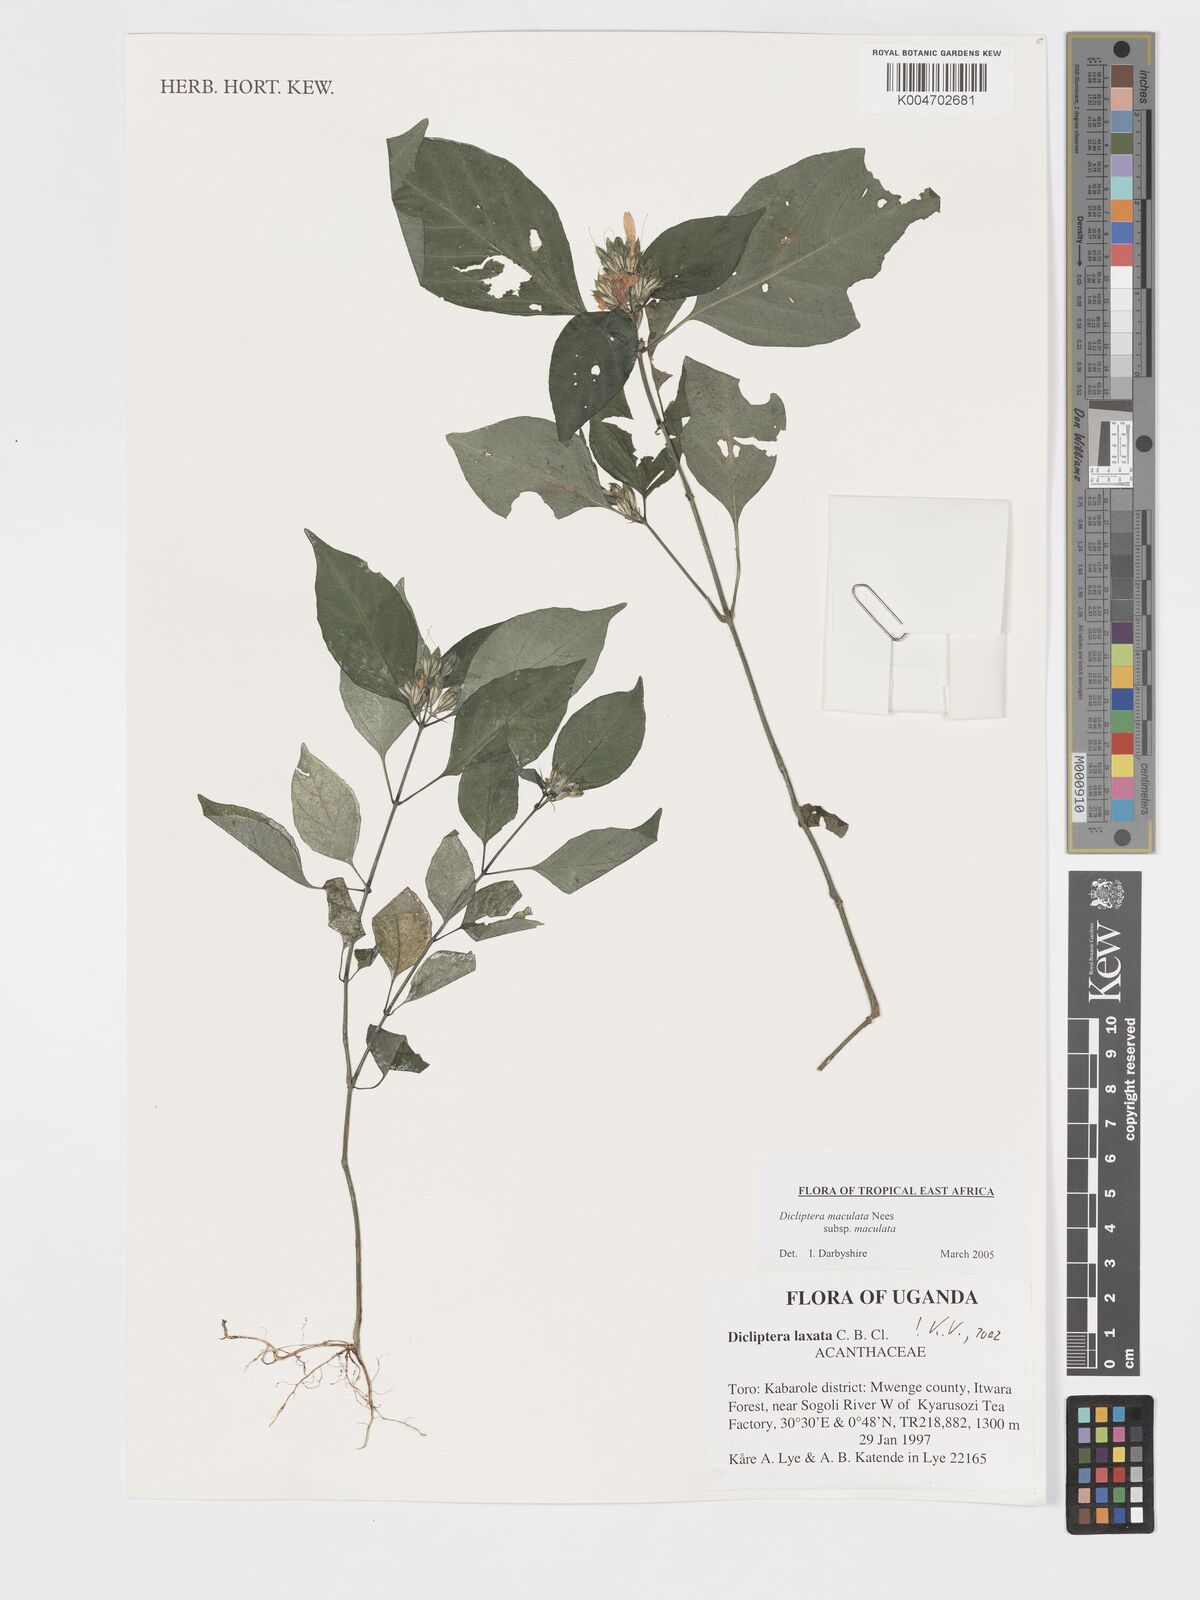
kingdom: Plantae
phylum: Tracheophyta
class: Magnoliopsida
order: Lamiales
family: Acanthaceae
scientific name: Acanthaceae
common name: Acanthaceae
